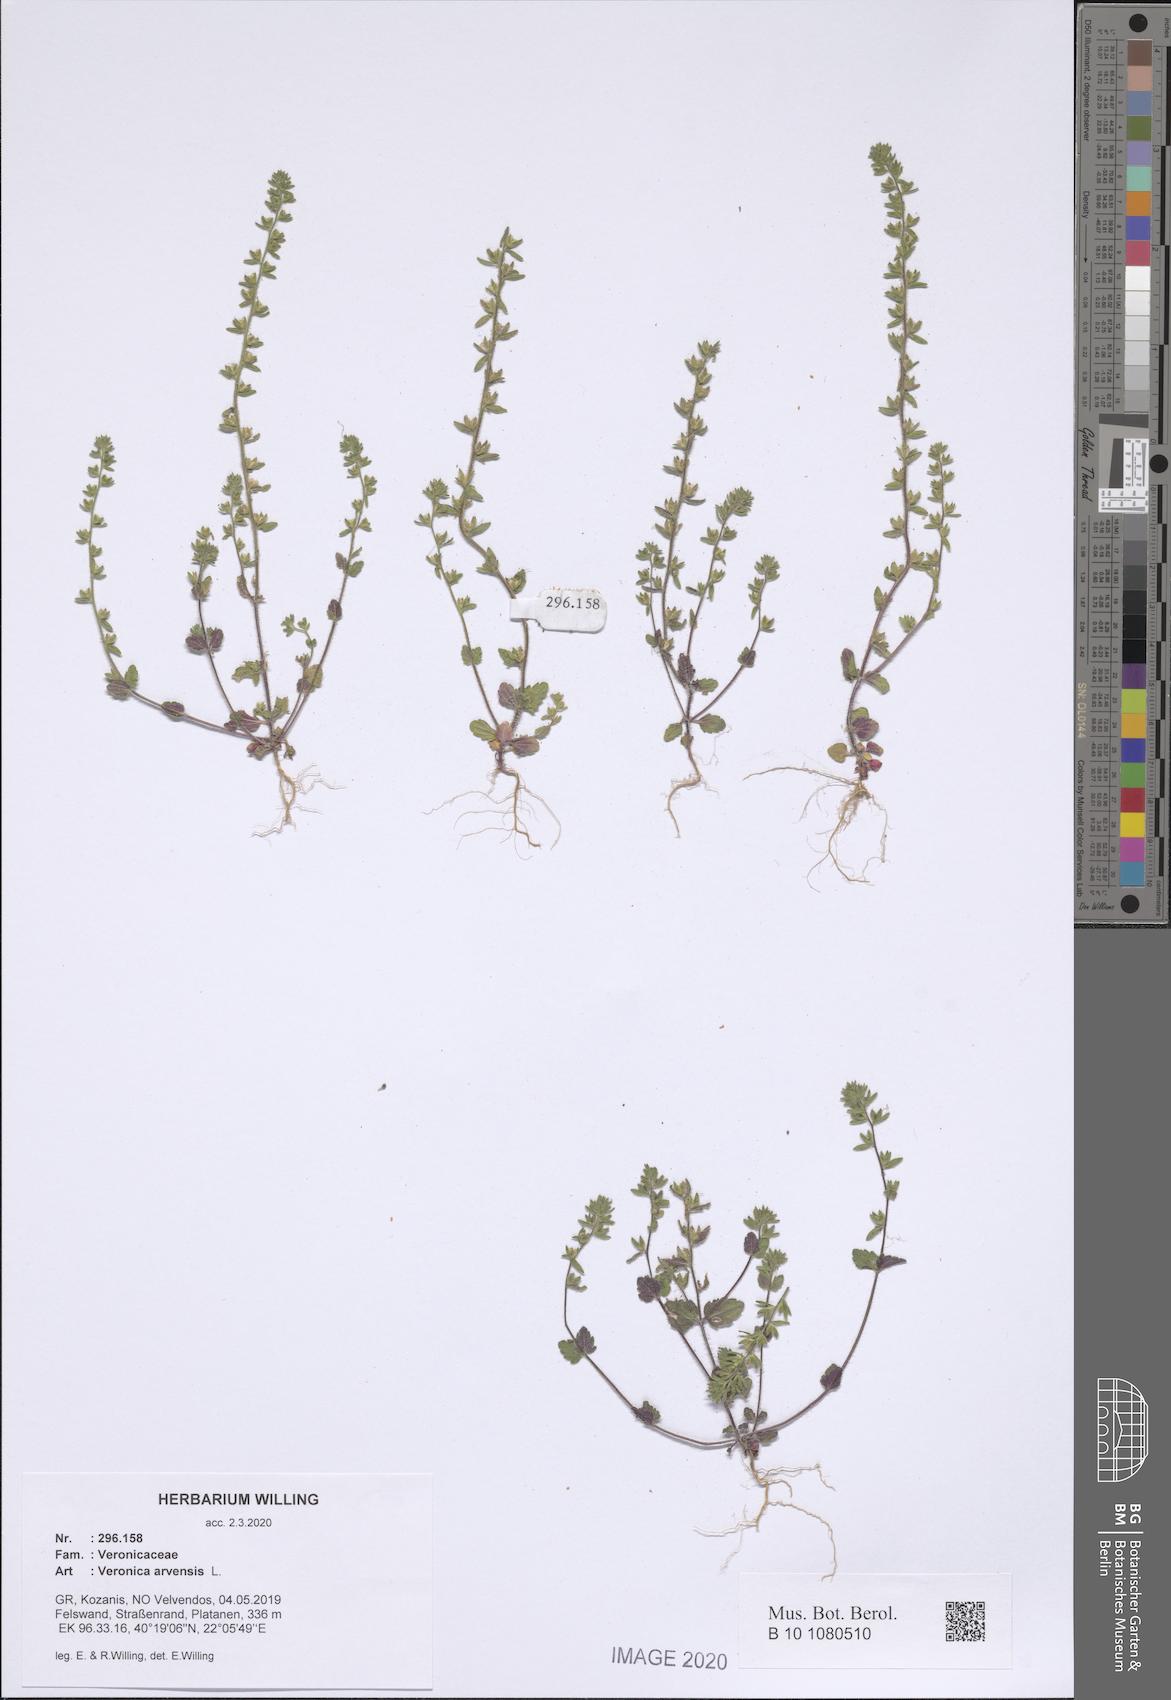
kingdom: Plantae
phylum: Tracheophyta
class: Magnoliopsida
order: Lamiales
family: Plantaginaceae
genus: Veronica
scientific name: Veronica arvensis
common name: Corn speedwell
